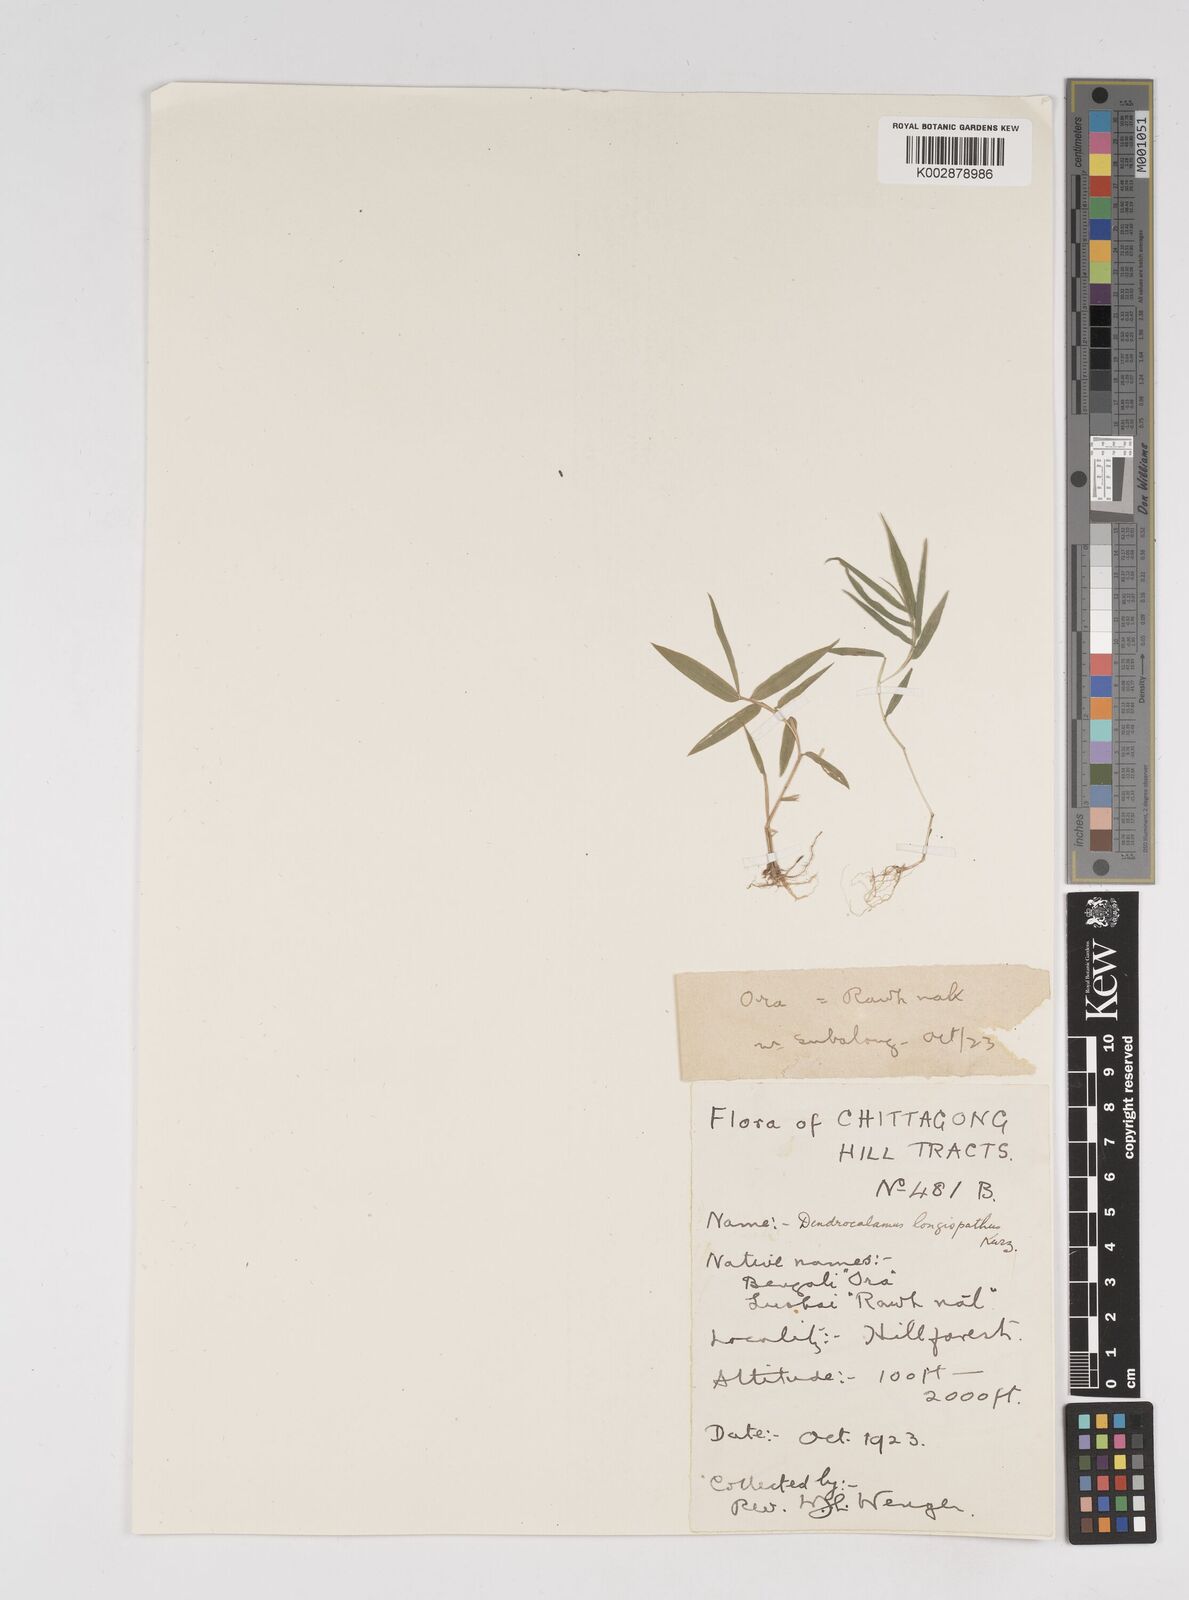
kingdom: Plantae
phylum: Tracheophyta
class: Liliopsida
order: Poales
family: Poaceae
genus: Dendrocalamus
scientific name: Dendrocalamus longispathus
